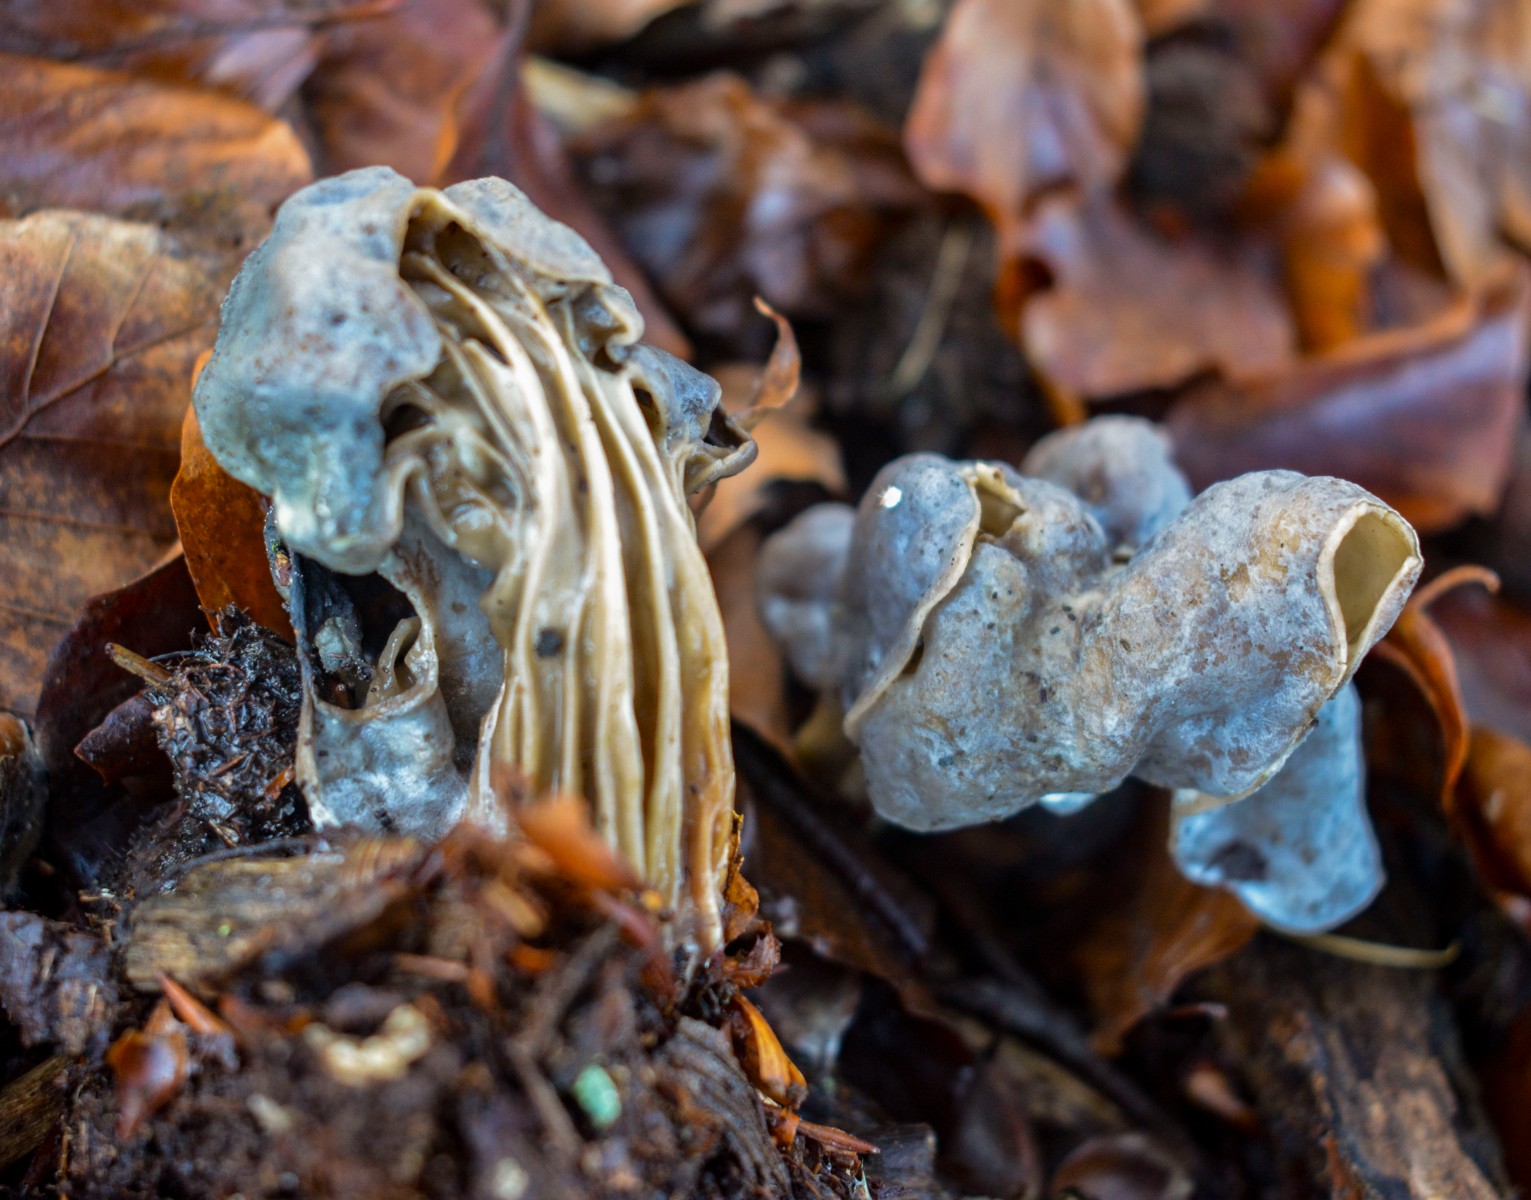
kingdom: Fungi
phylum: Ascomycota
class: Pezizomycetes
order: Pezizales
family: Helvellaceae
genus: Helvella
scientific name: Helvella lacunosa
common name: grubet foldhat
